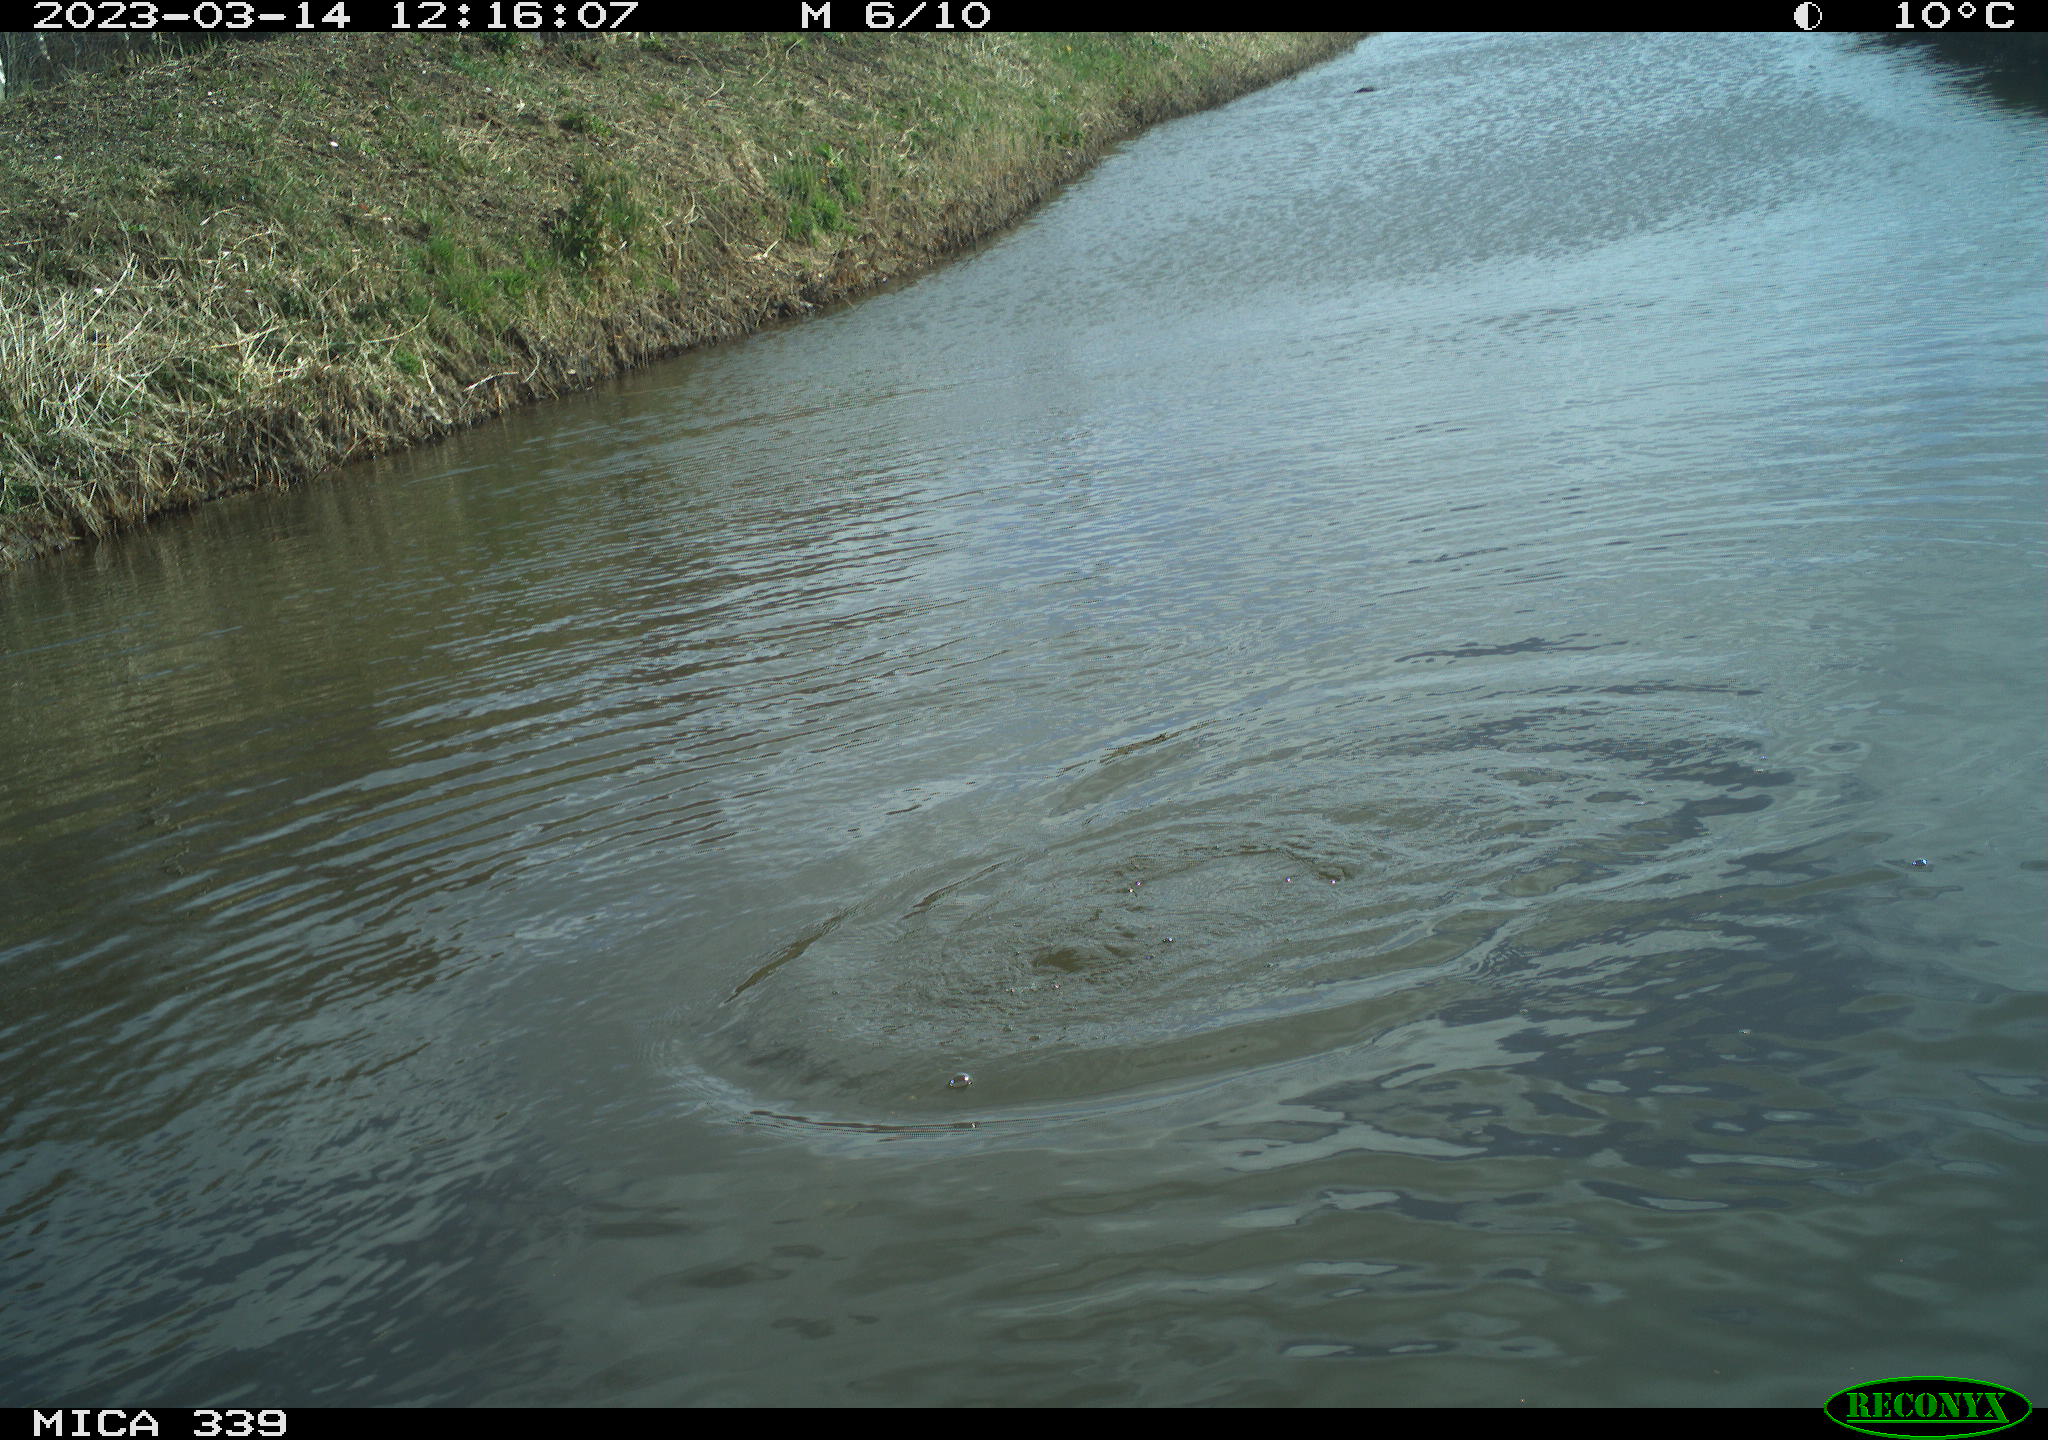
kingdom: Animalia
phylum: Chordata
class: Aves
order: Suliformes
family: Phalacrocoracidae
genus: Phalacrocorax
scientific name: Phalacrocorax carbo
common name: Great cormorant
